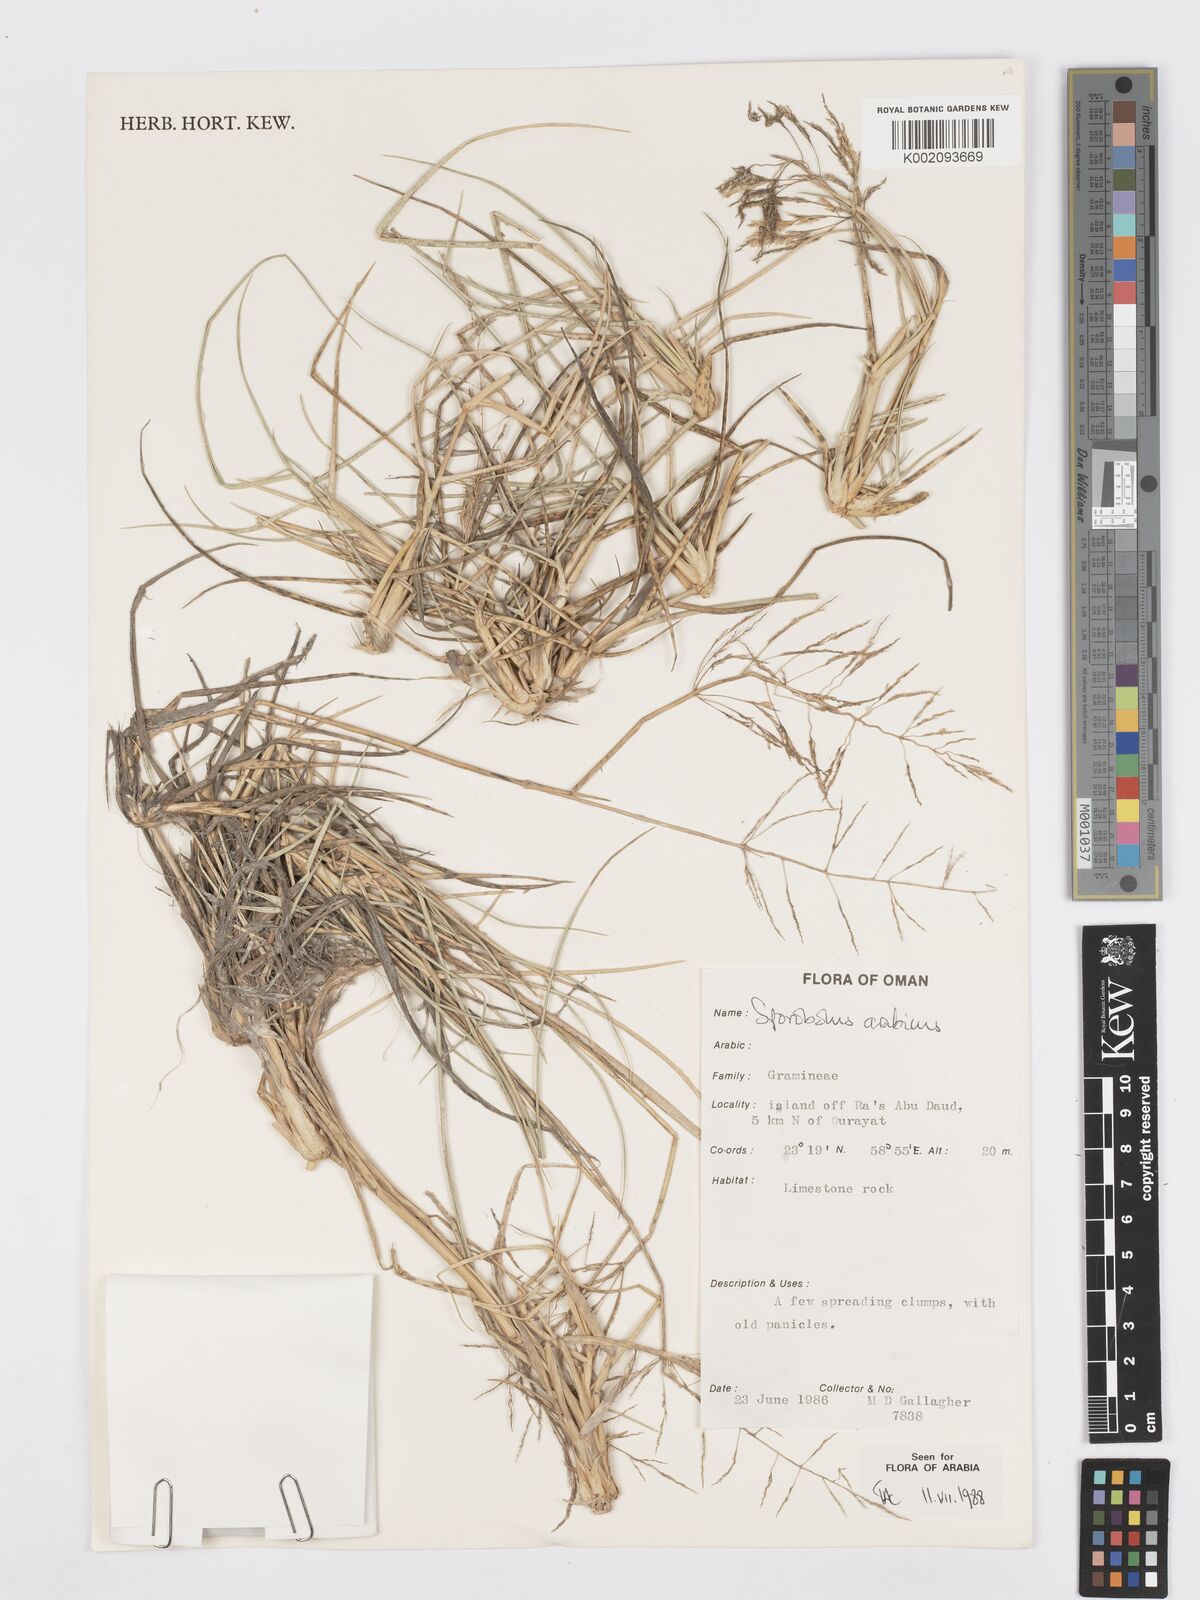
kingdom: Plantae
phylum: Tracheophyta
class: Liliopsida
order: Poales
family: Poaceae
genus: Sporobolus
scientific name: Sporobolus ioclados
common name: Pan dropseed
